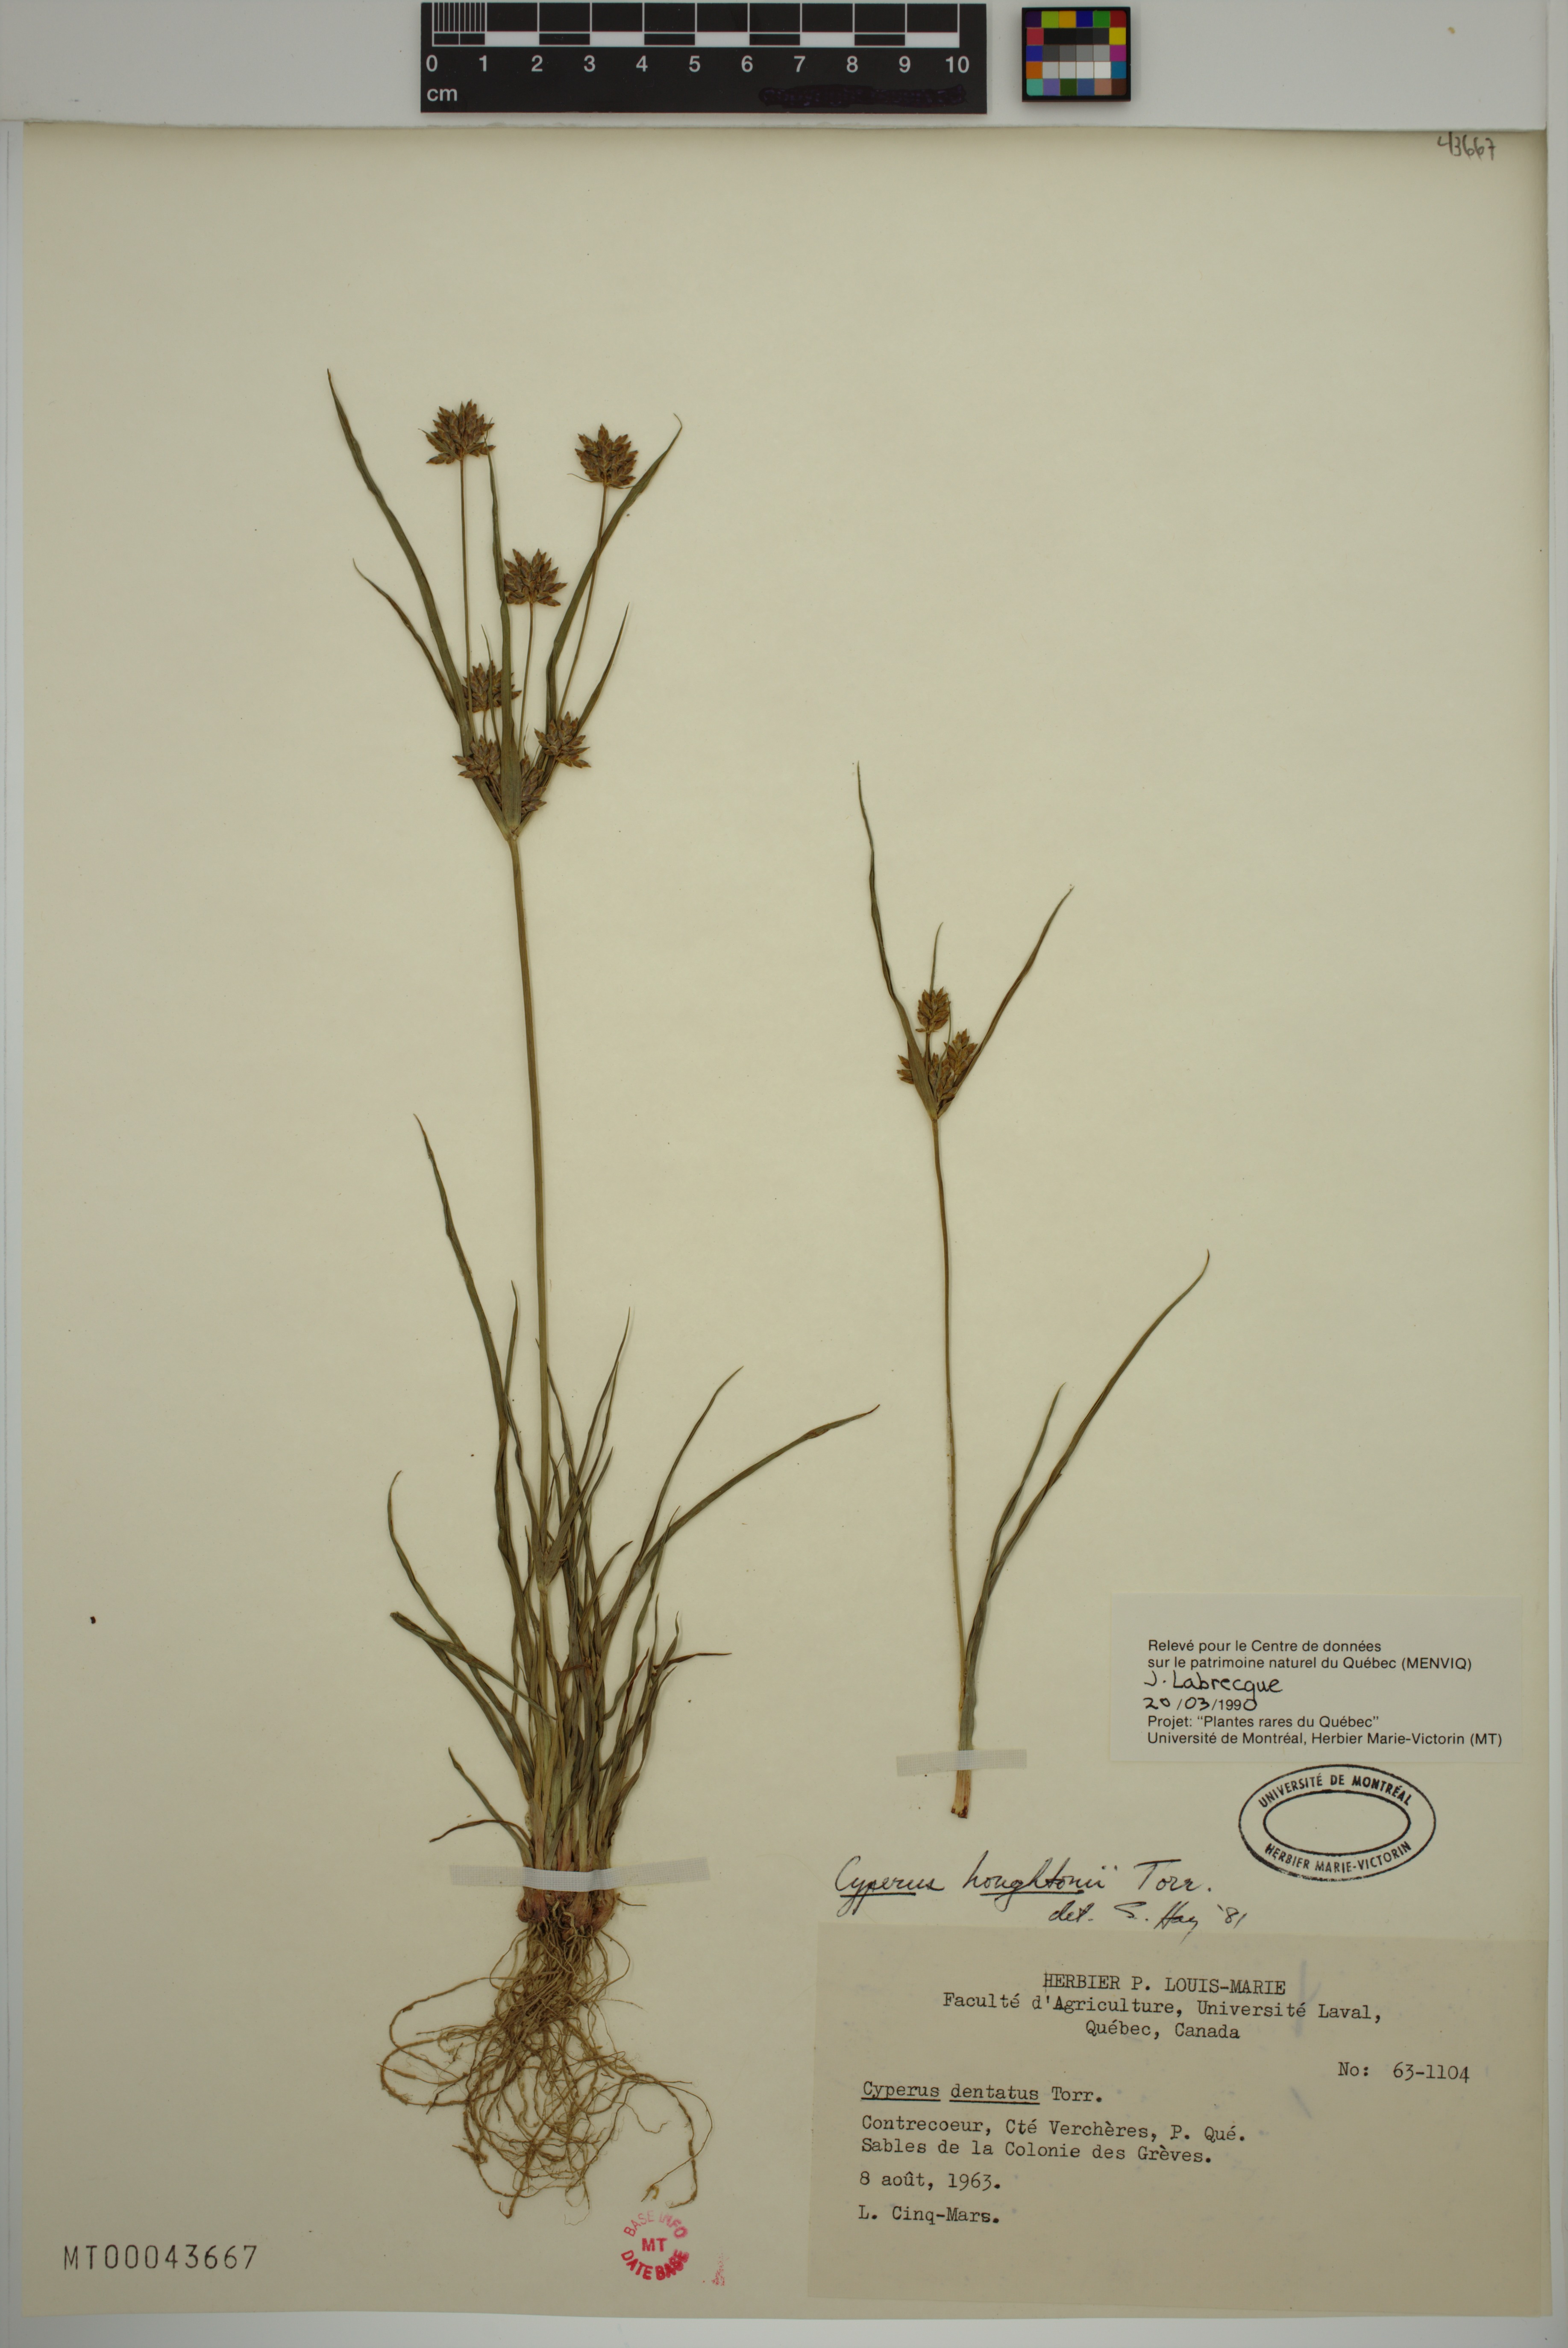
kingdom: Plantae
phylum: Tracheophyta
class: Liliopsida
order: Poales
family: Cyperaceae
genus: Cyperus
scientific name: Cyperus houghtonii
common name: Houghton's cyperus
